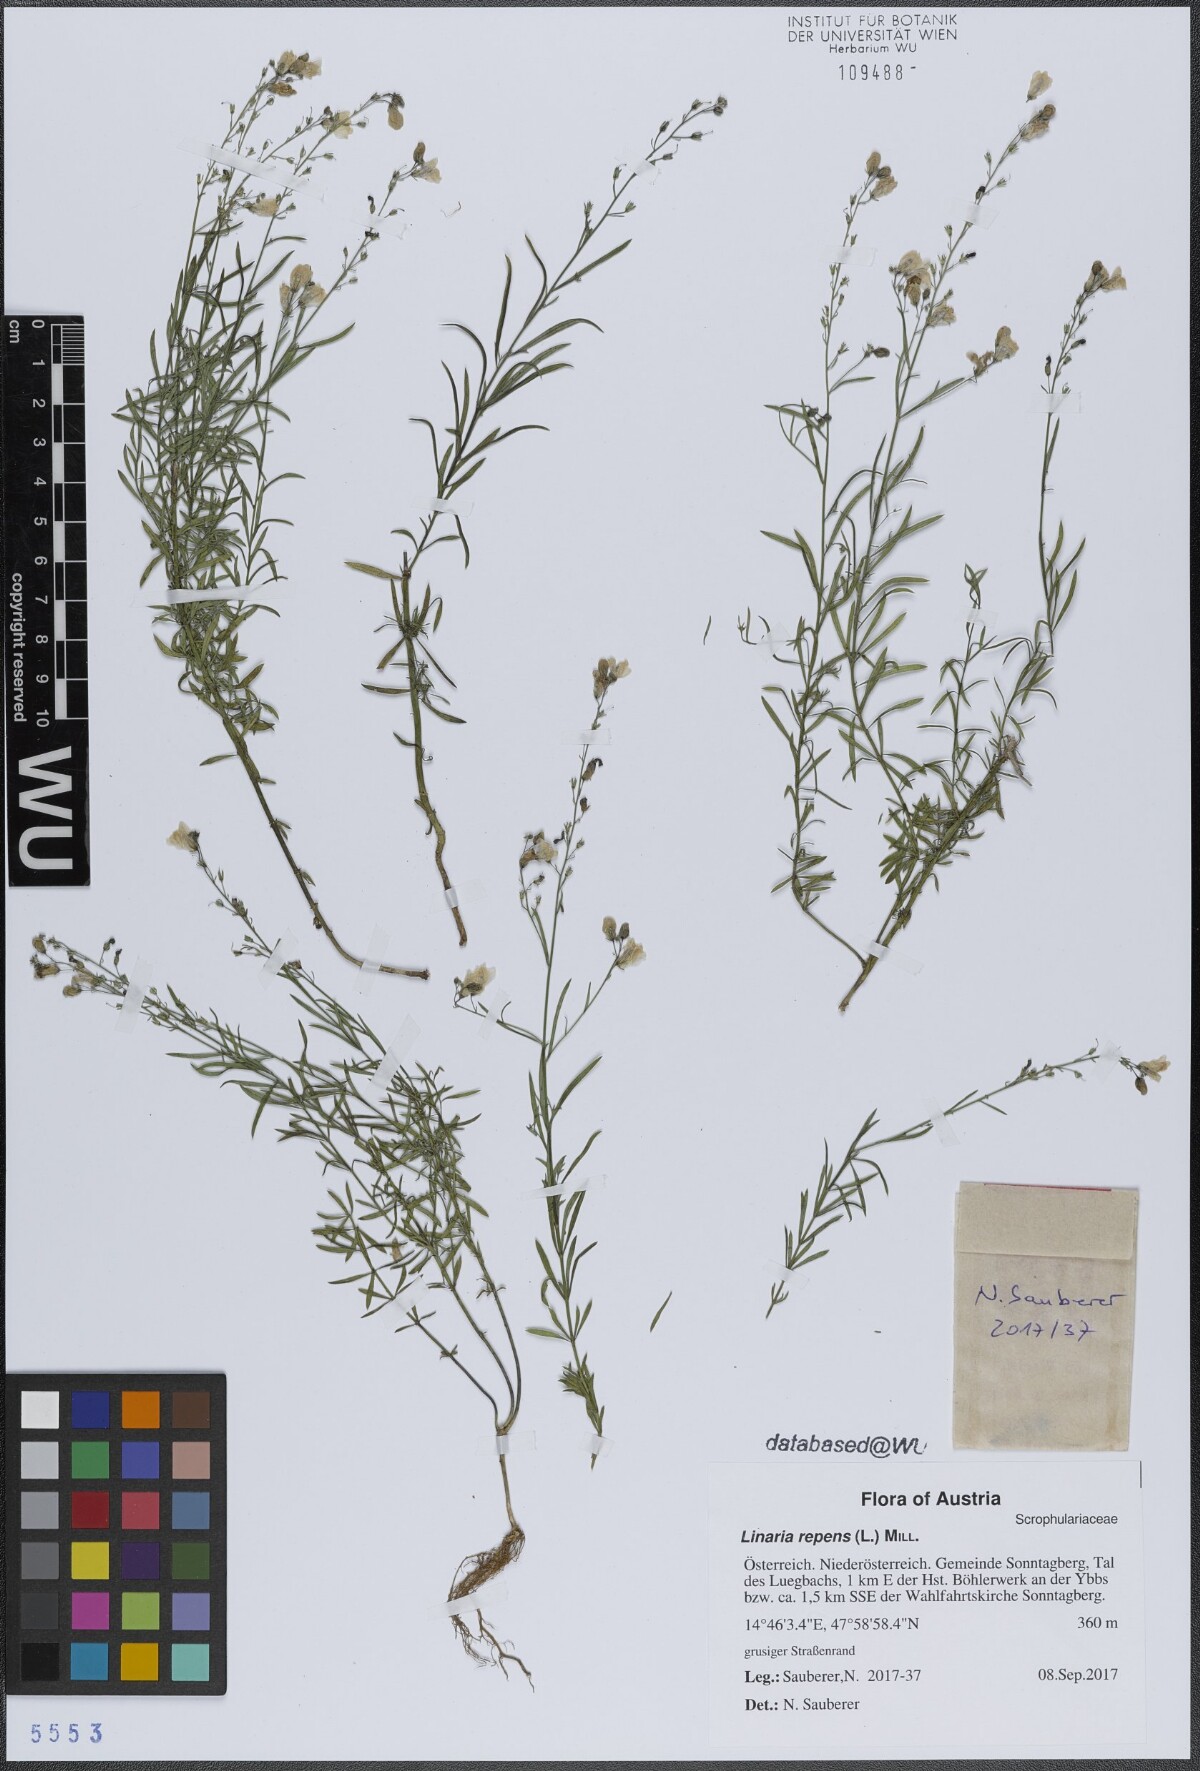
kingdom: Plantae
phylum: Tracheophyta
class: Magnoliopsida
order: Lamiales
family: Plantaginaceae
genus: Linaria
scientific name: Linaria repens
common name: Pale toadflax
